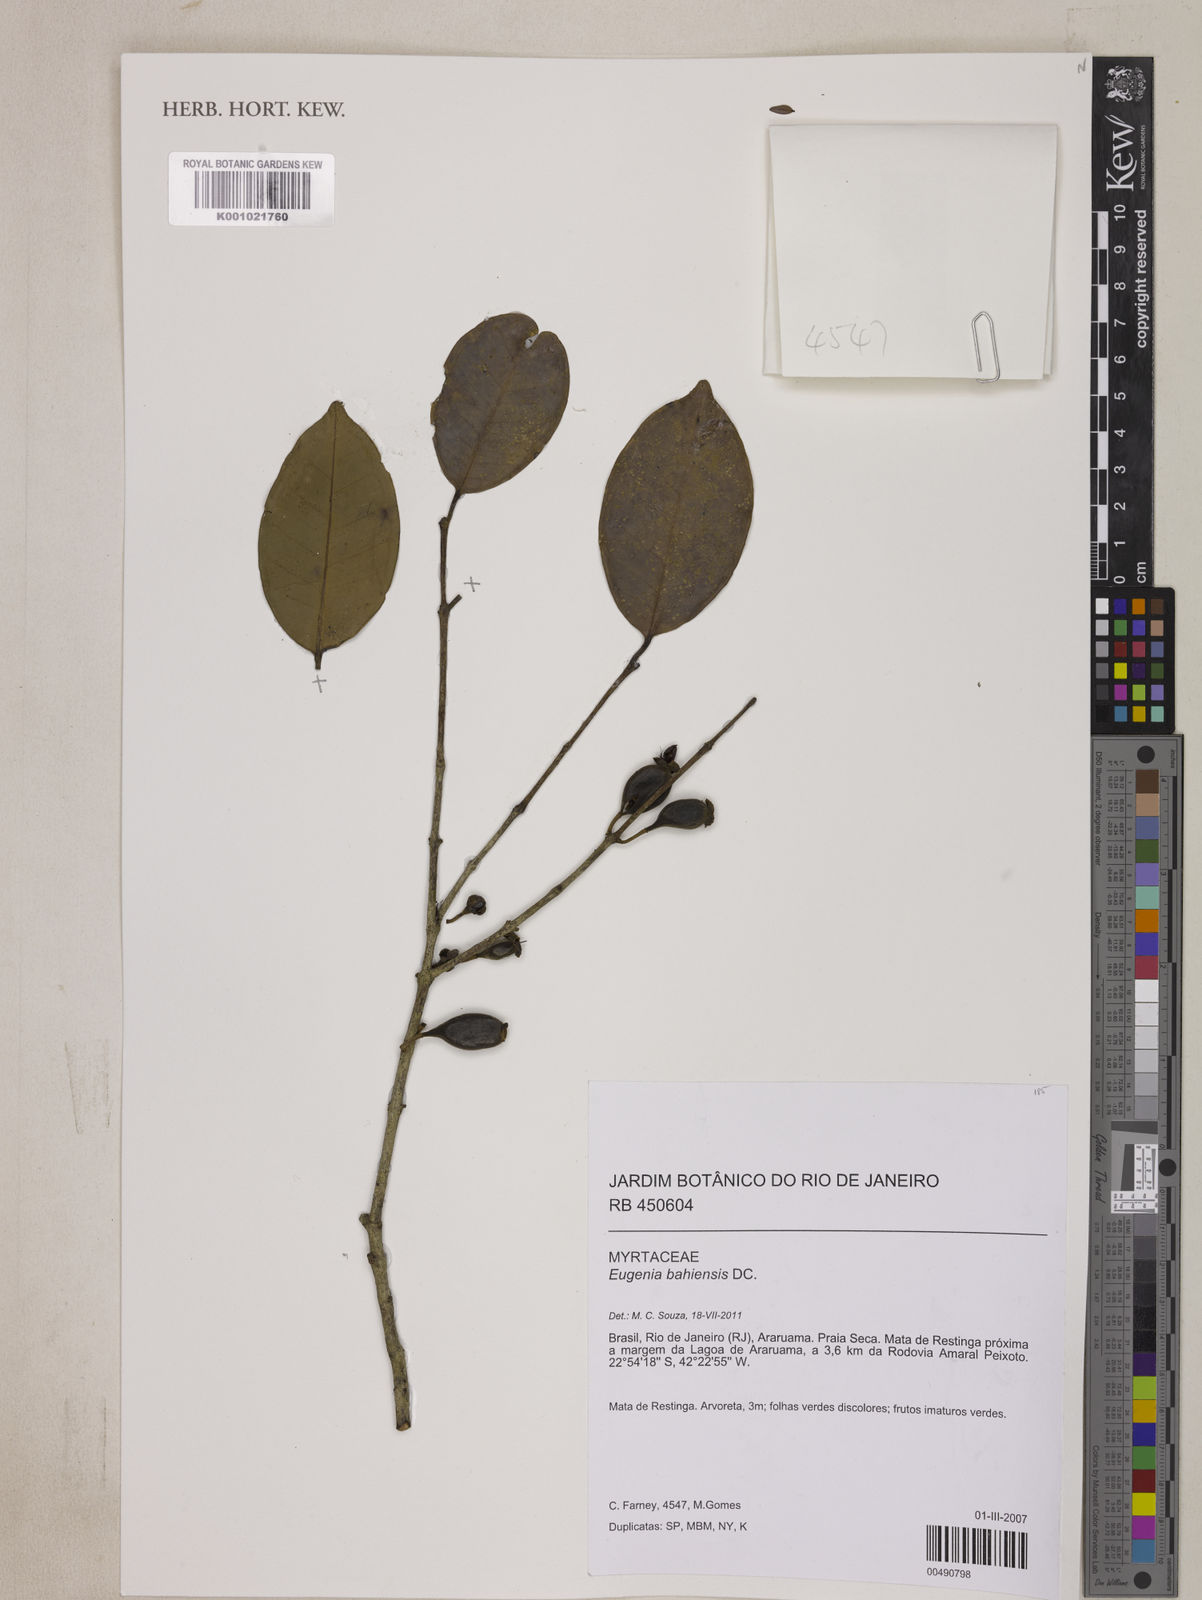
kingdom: Plantae
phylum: Tracheophyta
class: Magnoliopsida
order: Myrtales
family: Myrtaceae
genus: Eugenia
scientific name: Eugenia bahiensis
